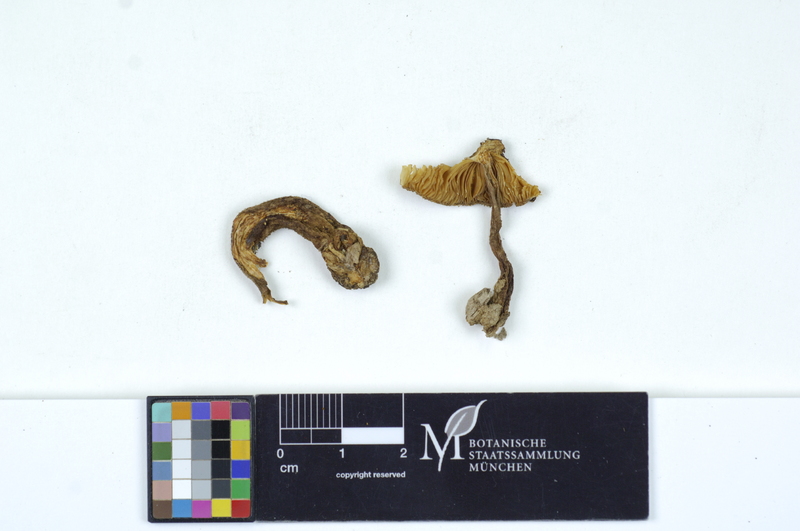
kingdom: Plantae
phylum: Tracheophyta
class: Magnoliopsida
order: Lamiales
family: Oleaceae
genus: Fraxinus
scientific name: Fraxinus
